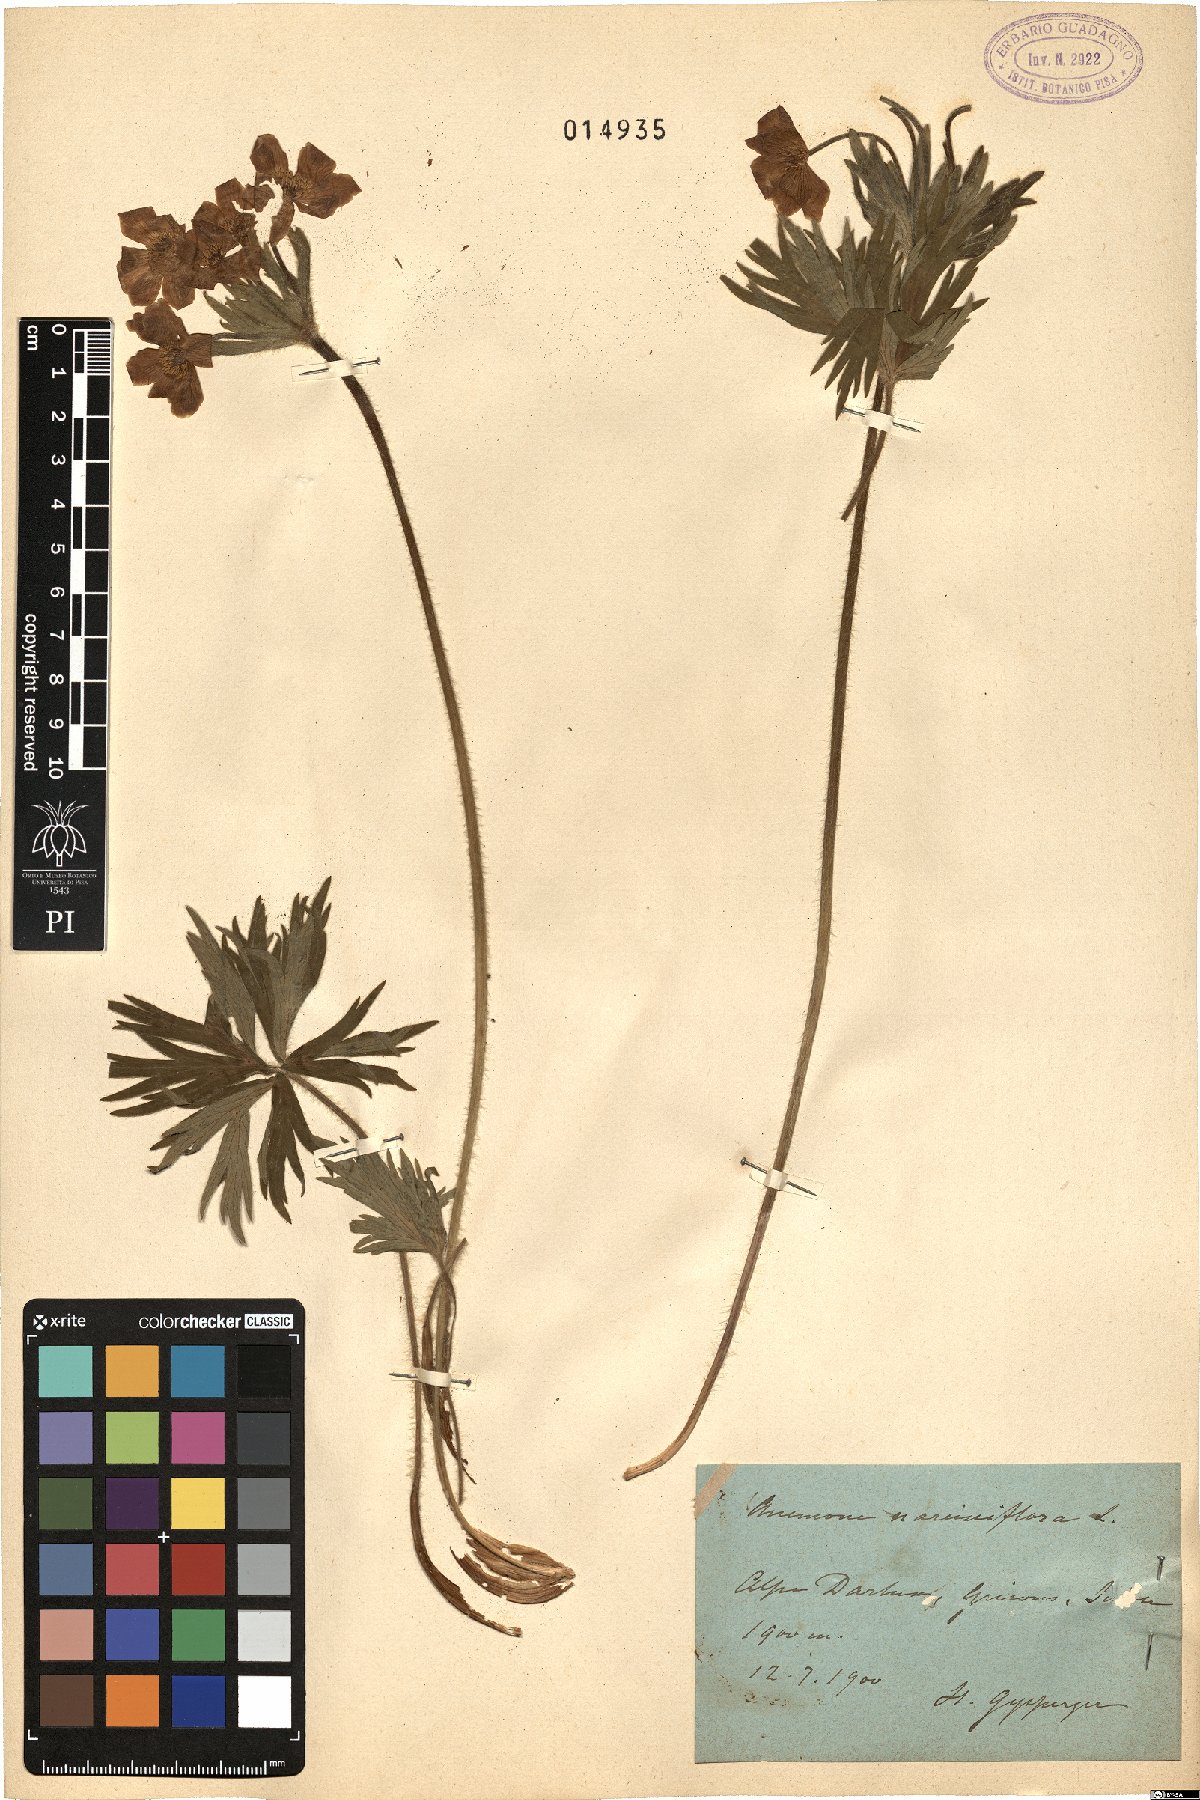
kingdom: Plantae
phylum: Tracheophyta
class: Magnoliopsida
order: Ranunculales
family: Ranunculaceae
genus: Anemonastrum
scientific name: Anemonastrum narcissiflorum
